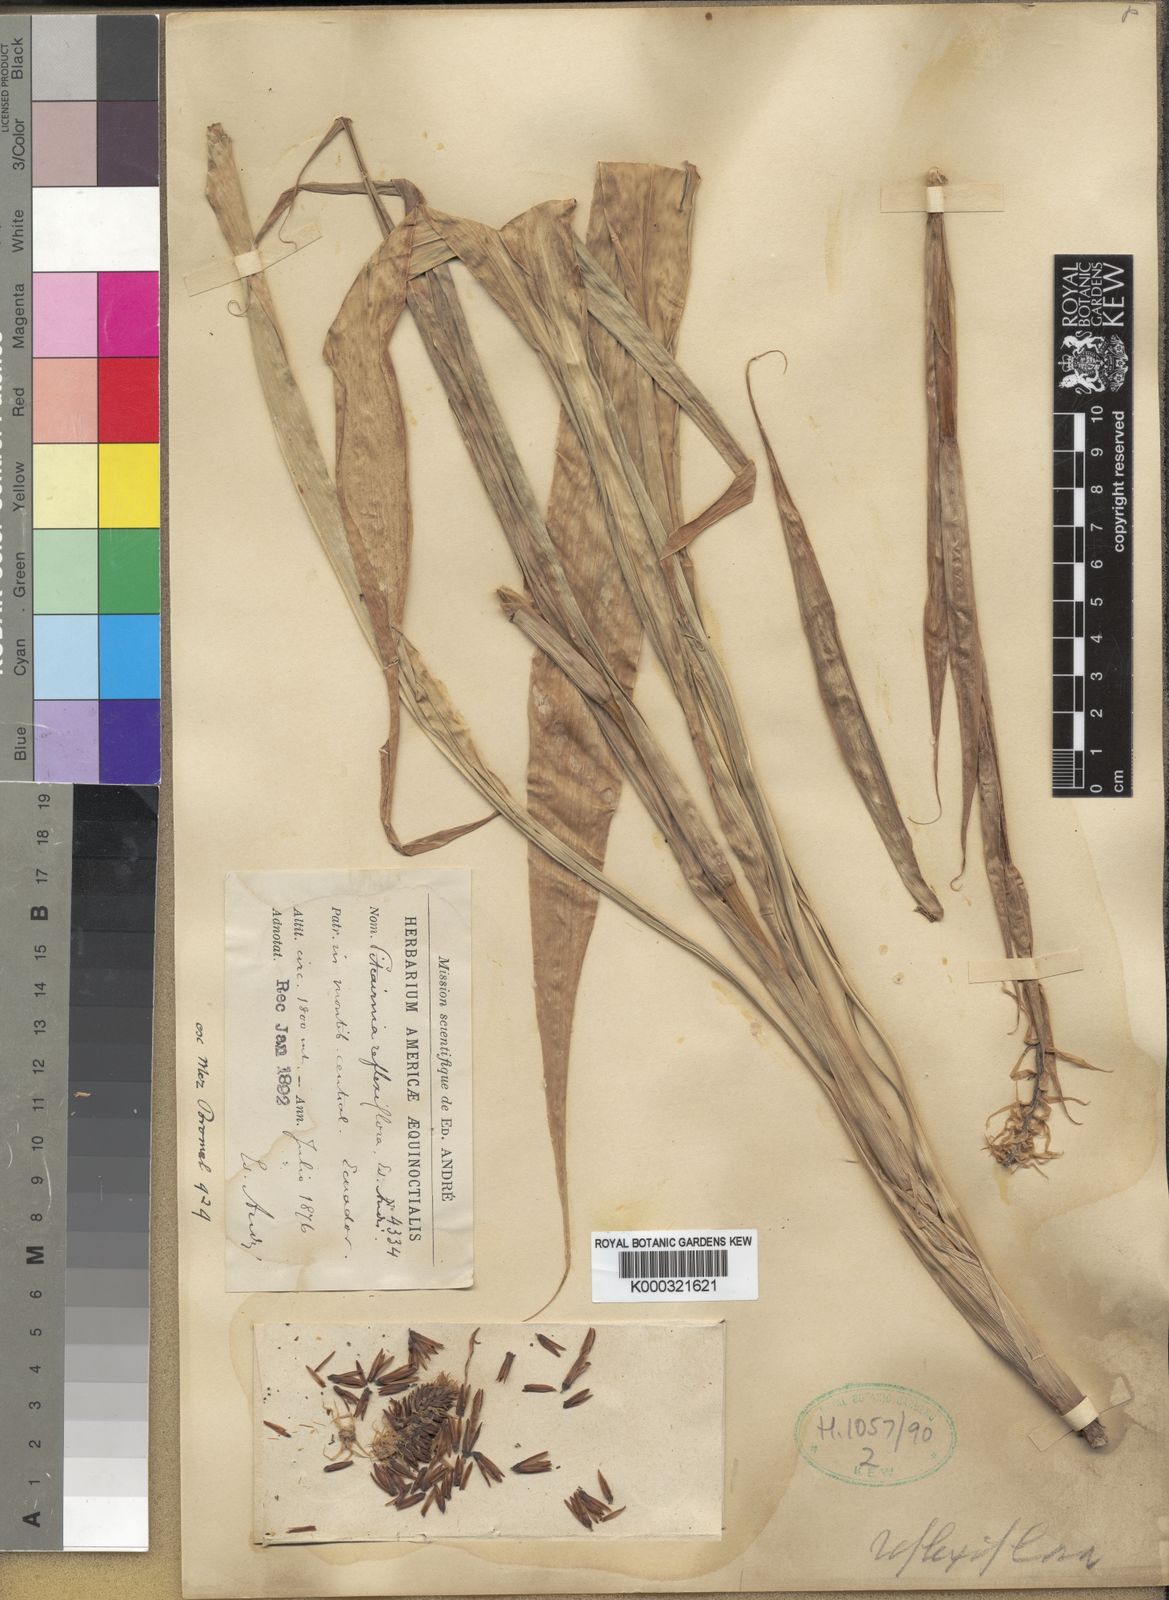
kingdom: Plantae
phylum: Tracheophyta
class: Liliopsida
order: Poales
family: Bromeliaceae
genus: Pitcairnia
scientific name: Pitcairnia
